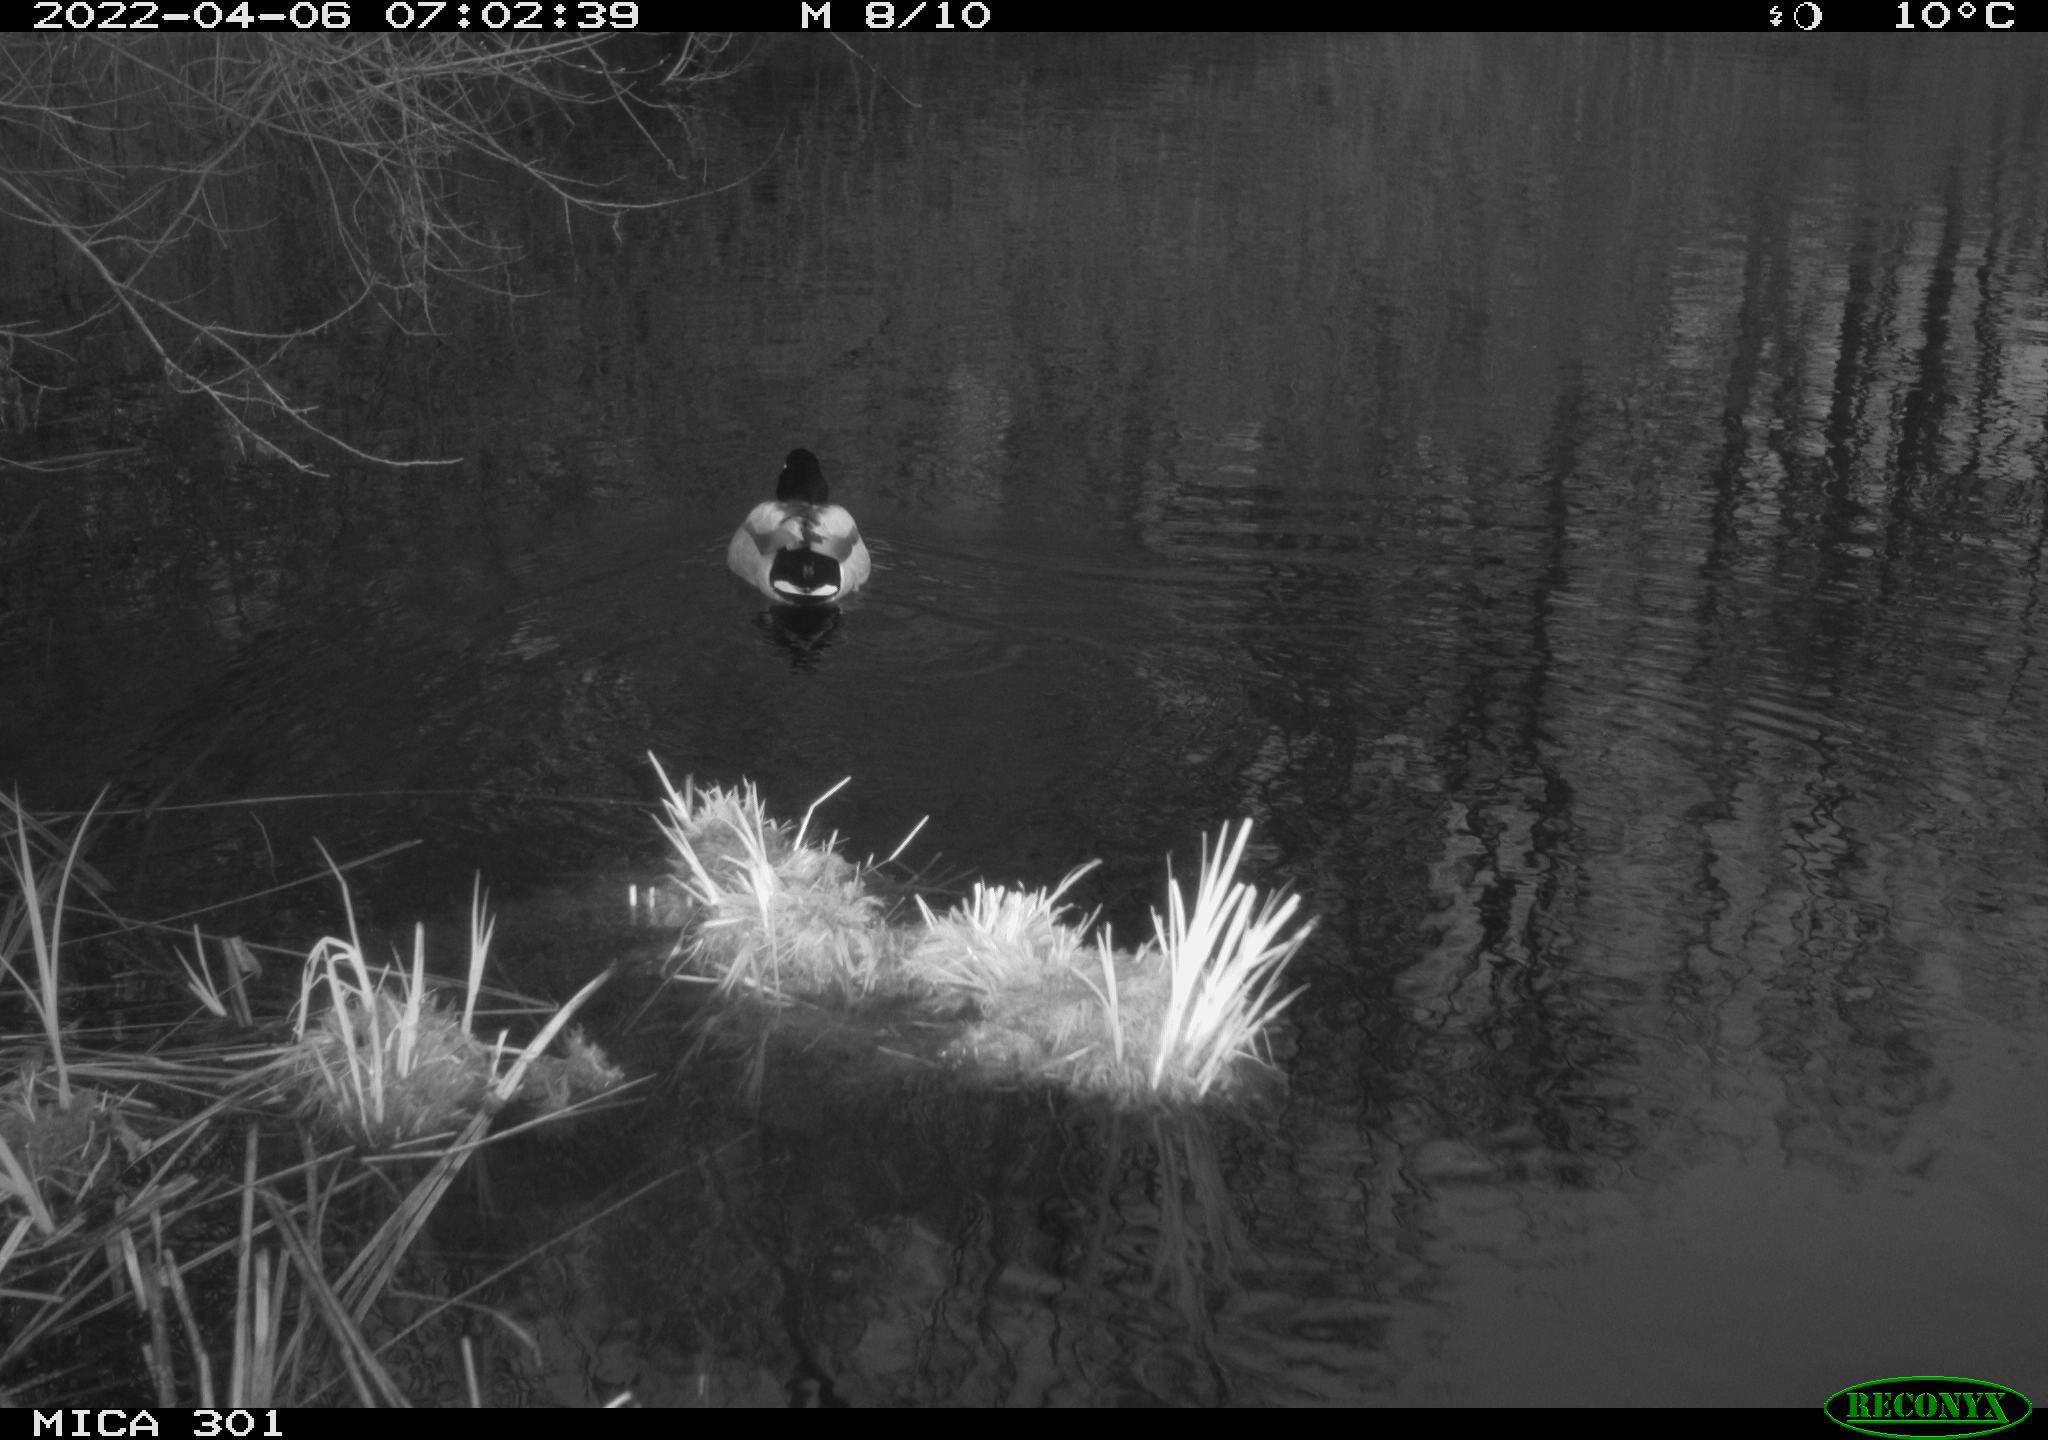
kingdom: Animalia
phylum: Chordata
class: Aves
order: Anseriformes
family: Anatidae
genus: Anas
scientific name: Anas platyrhynchos
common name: Mallard
